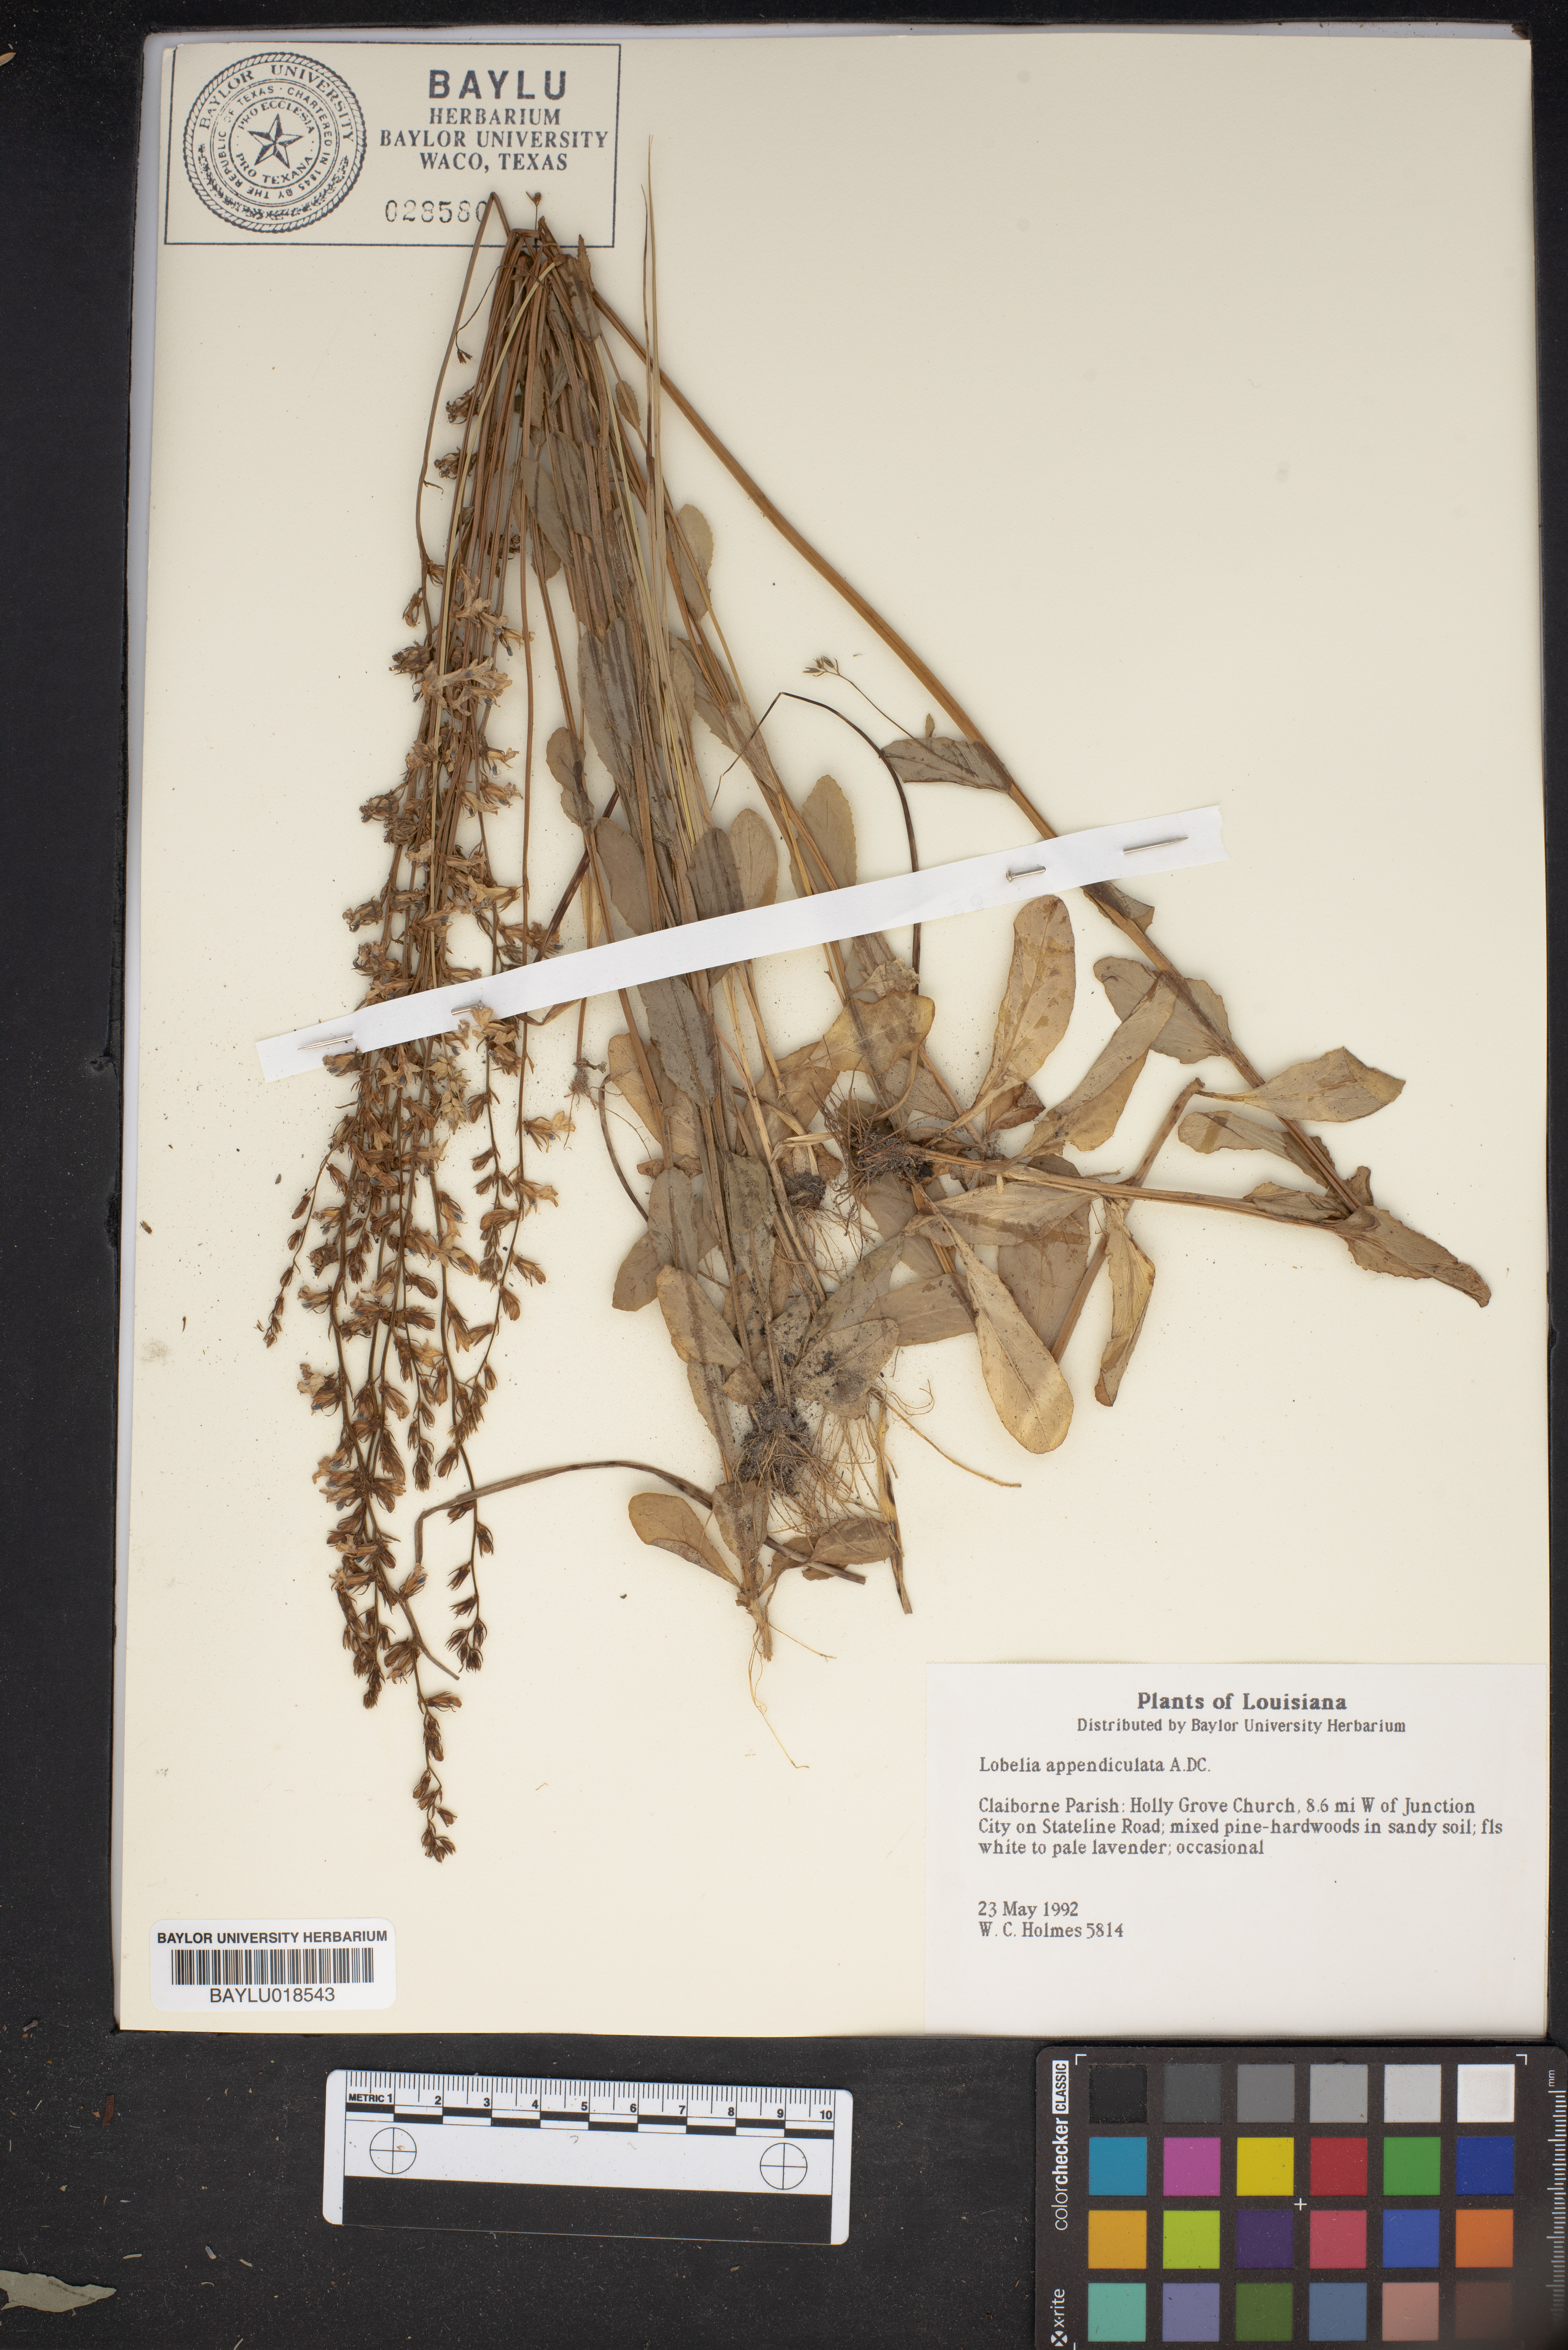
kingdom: Plantae
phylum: Tracheophyta
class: Magnoliopsida
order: Asterales
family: Campanulaceae
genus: Lobelia
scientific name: Lobelia appendiculata
